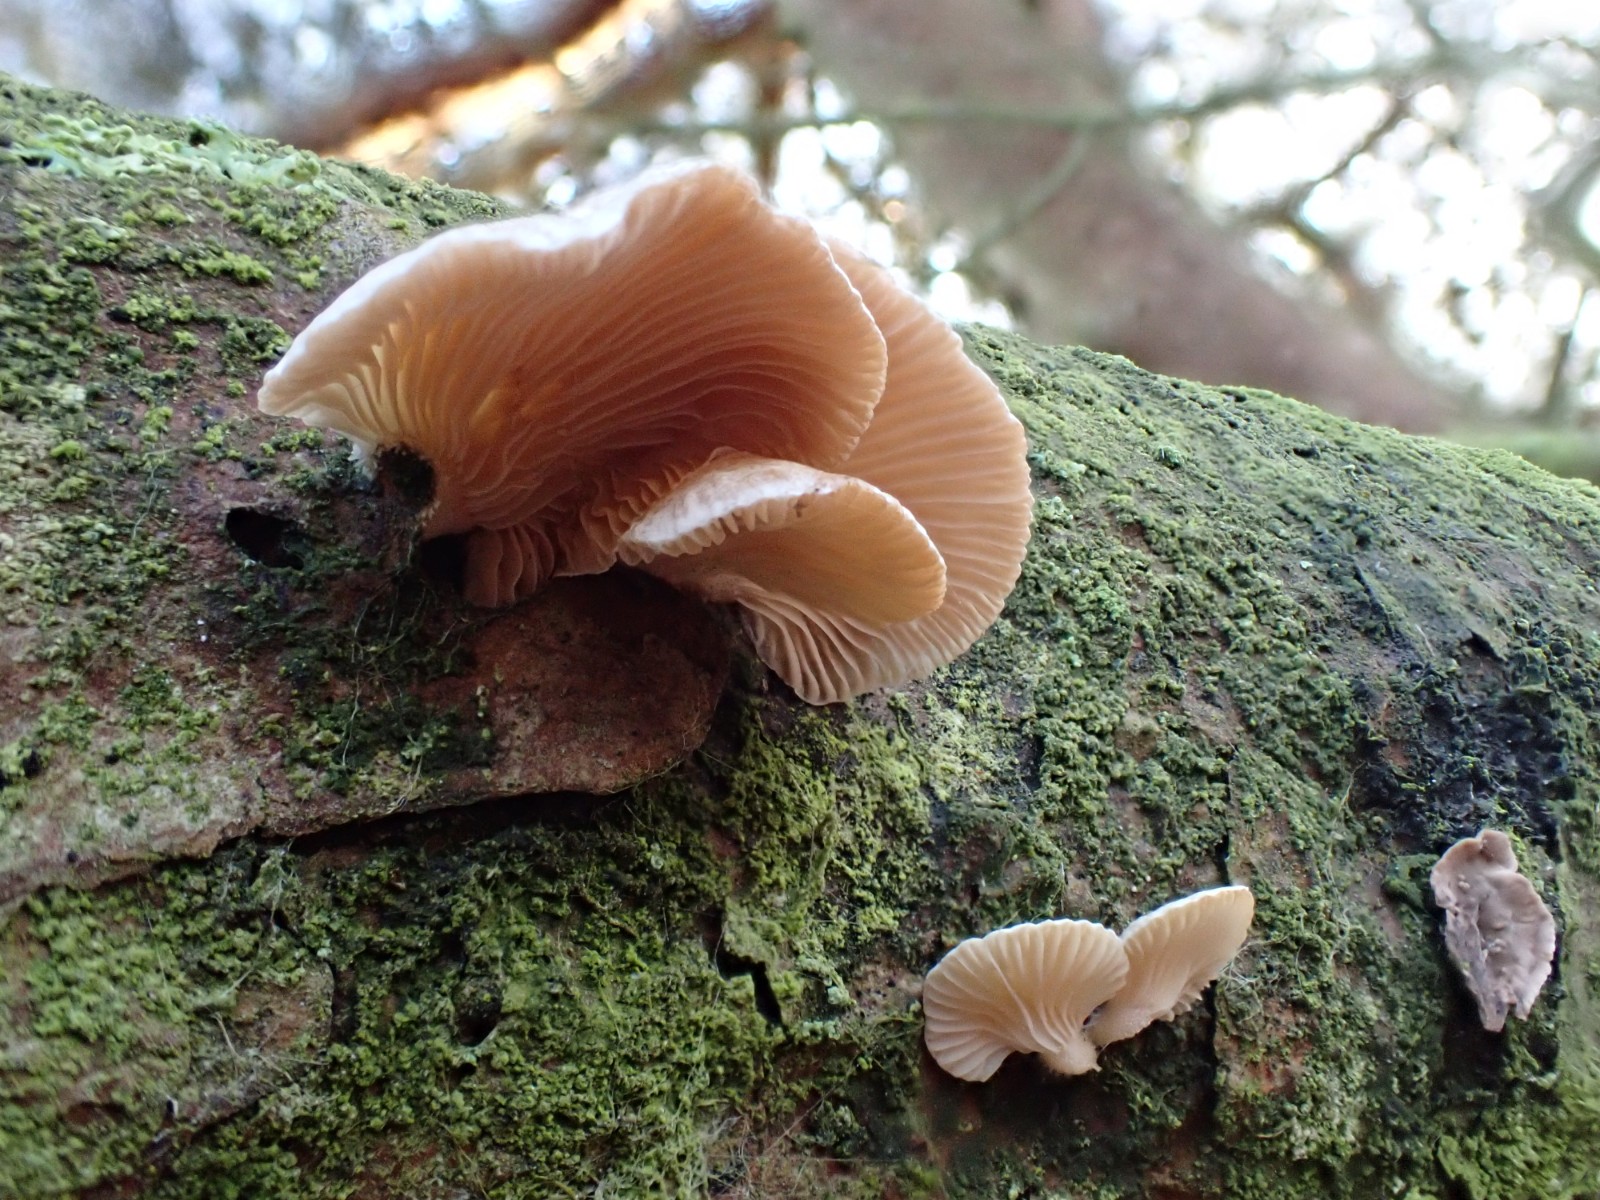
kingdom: Fungi
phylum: Basidiomycota
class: Agaricomycetes
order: Agaricales
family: Mycenaceae
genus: Panellus
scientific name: Panellus mitis
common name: mild epaulethat
